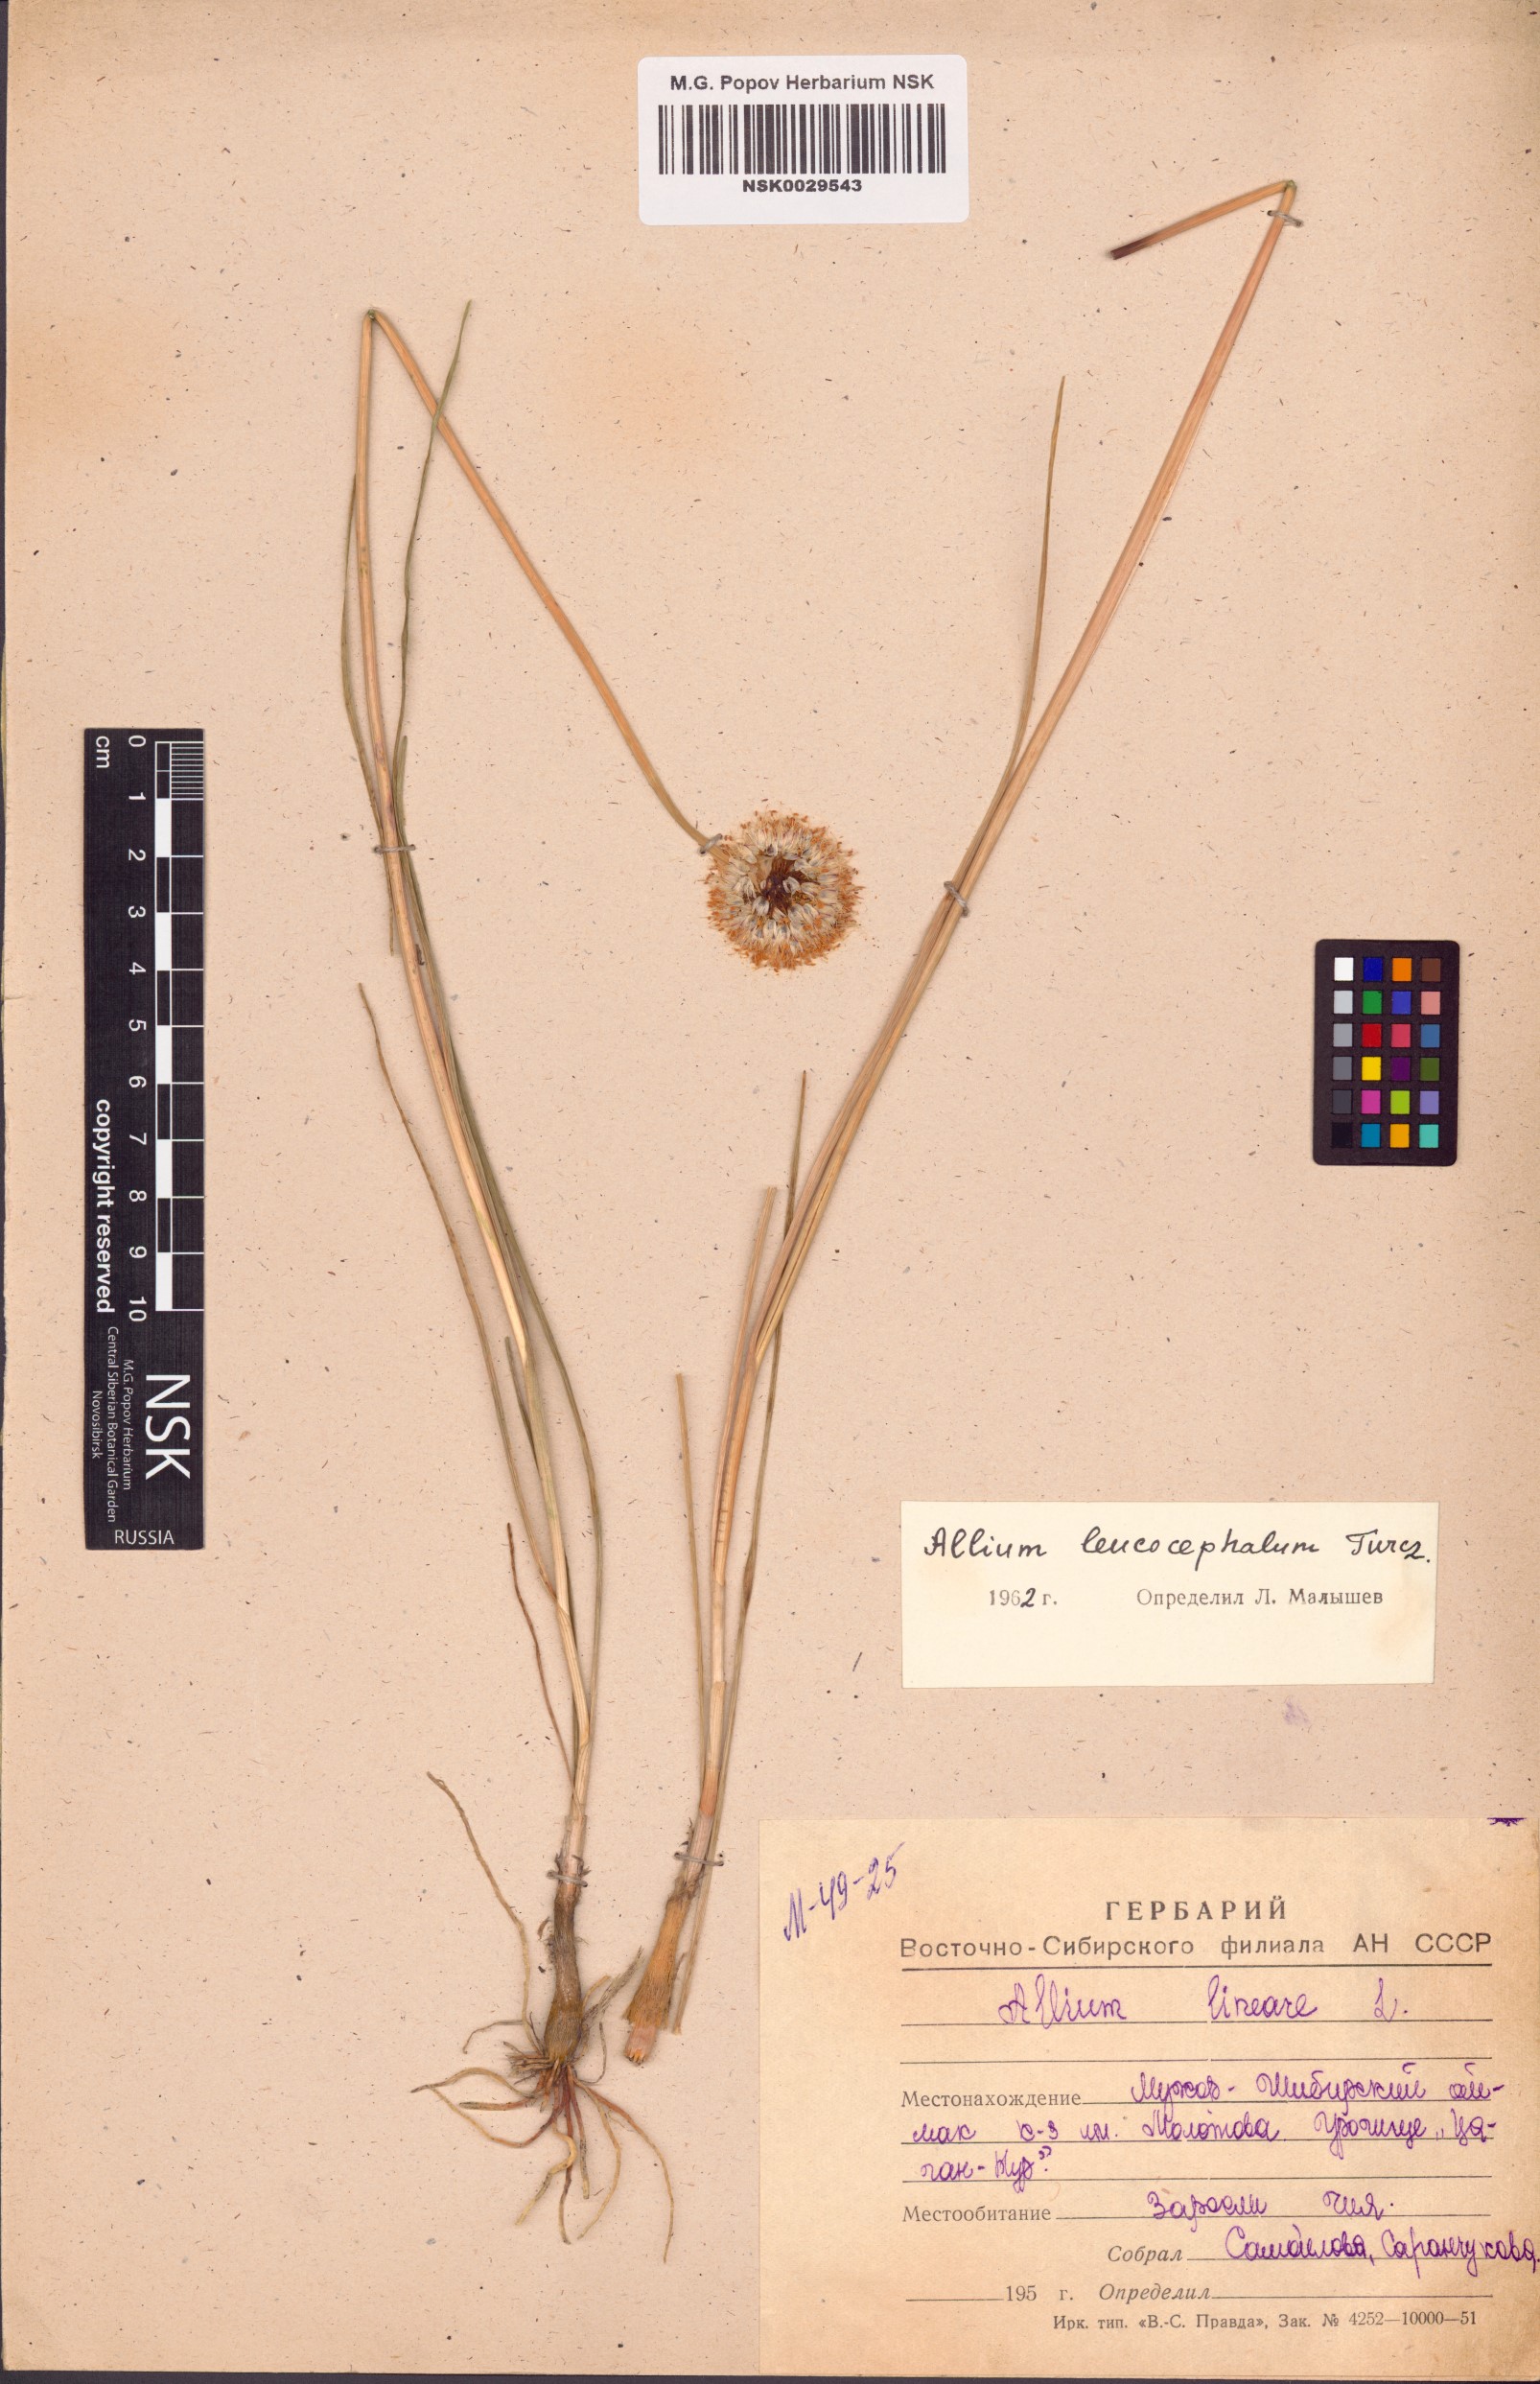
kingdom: Plantae
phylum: Tracheophyta
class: Liliopsida
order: Asparagales
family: Amaryllidaceae
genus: Allium
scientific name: Allium leucocephalum
